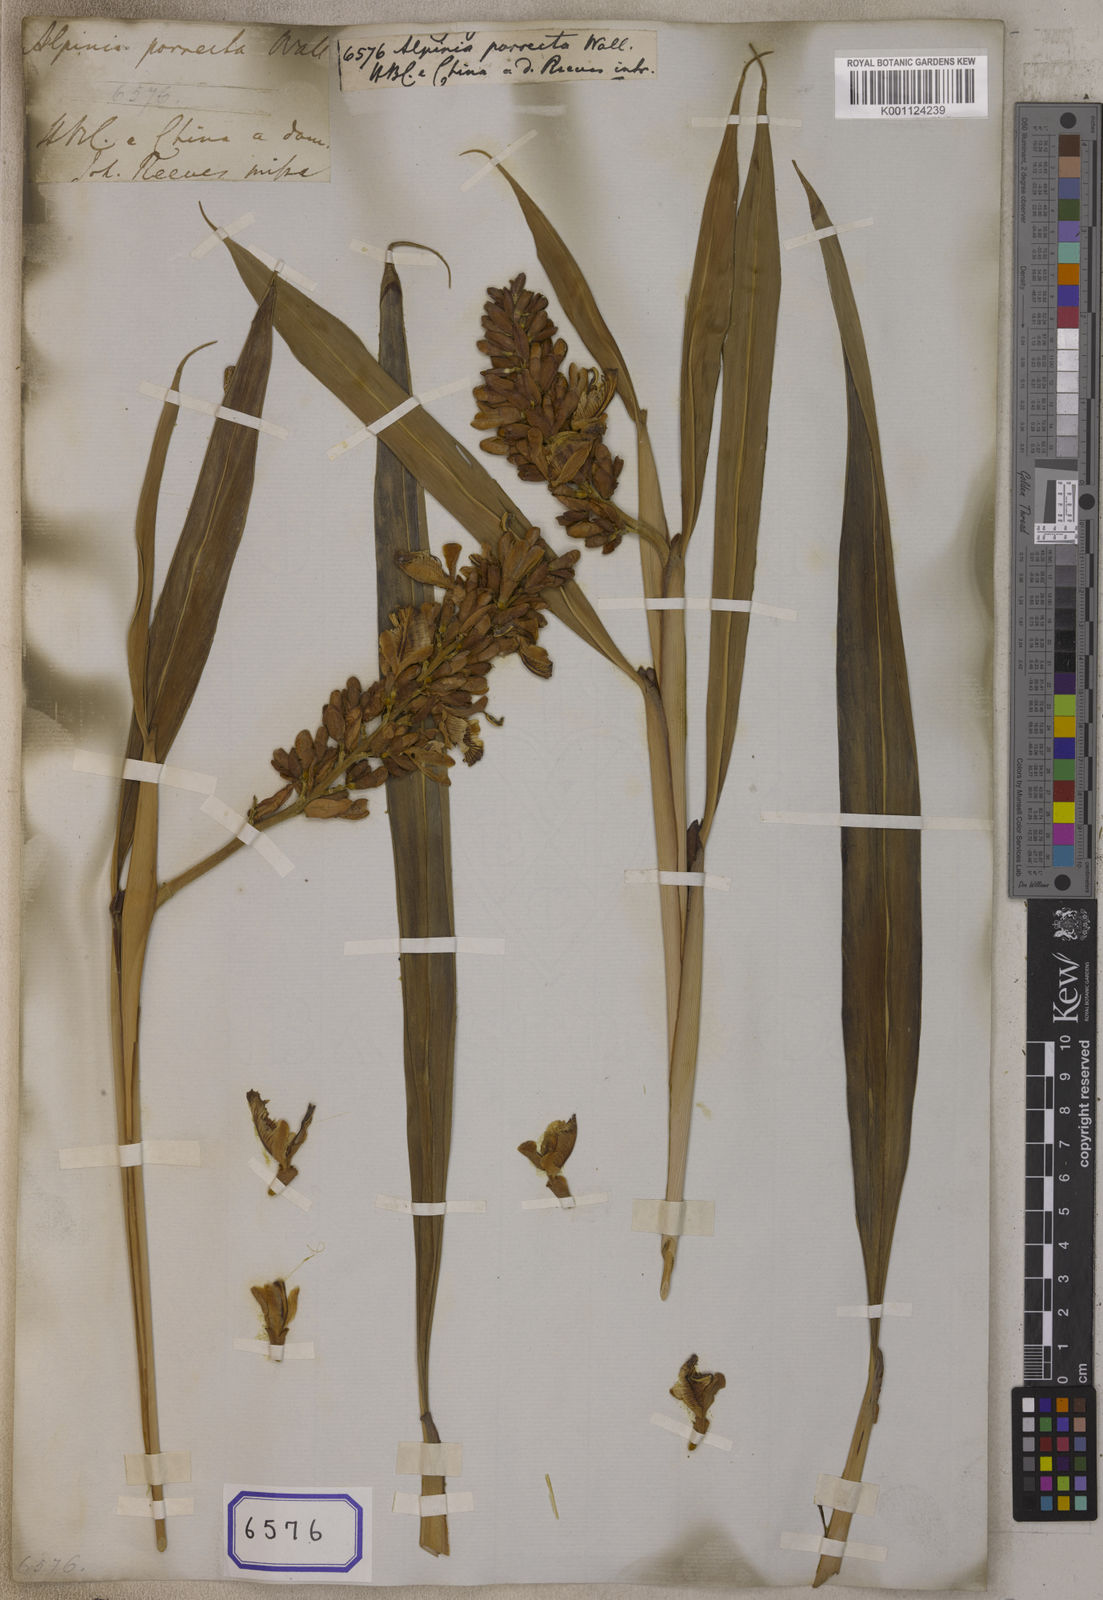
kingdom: Plantae
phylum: Tracheophyta
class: Liliopsida
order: Zingiberales
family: Zingiberaceae
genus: Alpinia
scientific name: Alpinia
